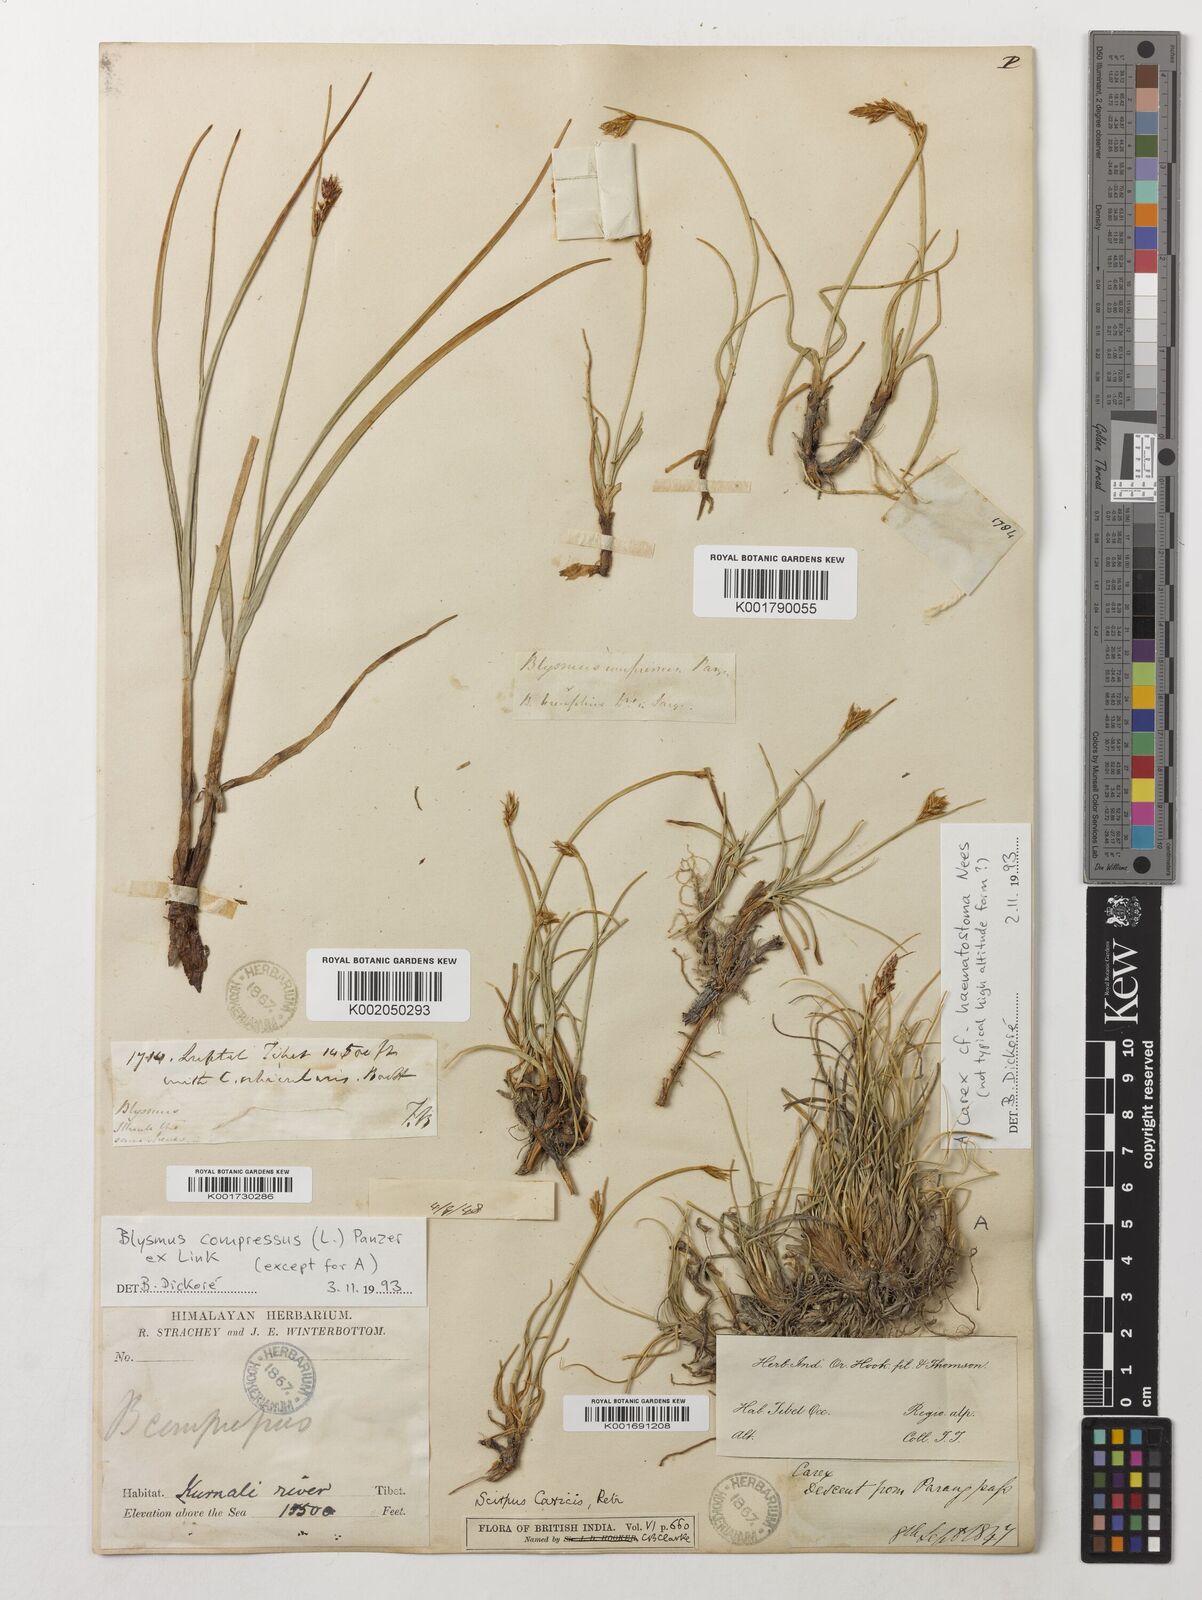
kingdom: Plantae
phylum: Tracheophyta
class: Liliopsida
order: Poales
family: Cyperaceae
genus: Blysmus
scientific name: Blysmus compressus
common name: Flat-sedge
